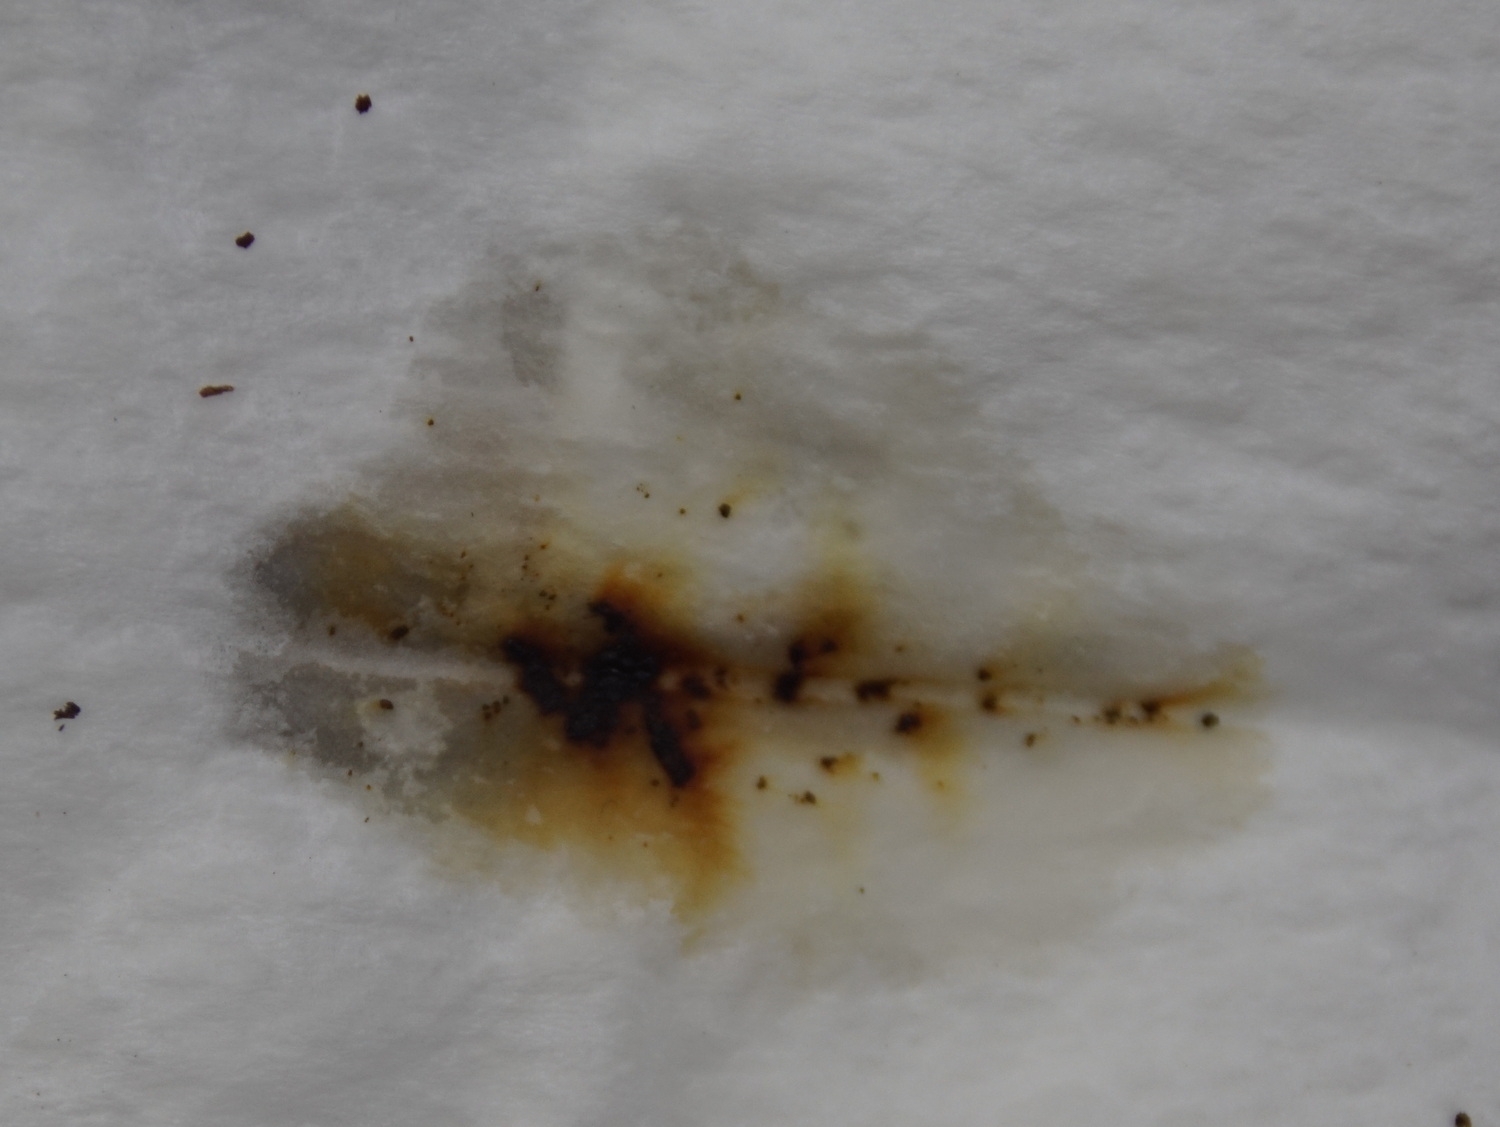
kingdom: Fungi
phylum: Ascomycota
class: Sordariomycetes
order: Xylariales
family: Hypoxylaceae
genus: Hypoxylon
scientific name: Hypoxylon petriniae
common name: nedsænket kulbær
